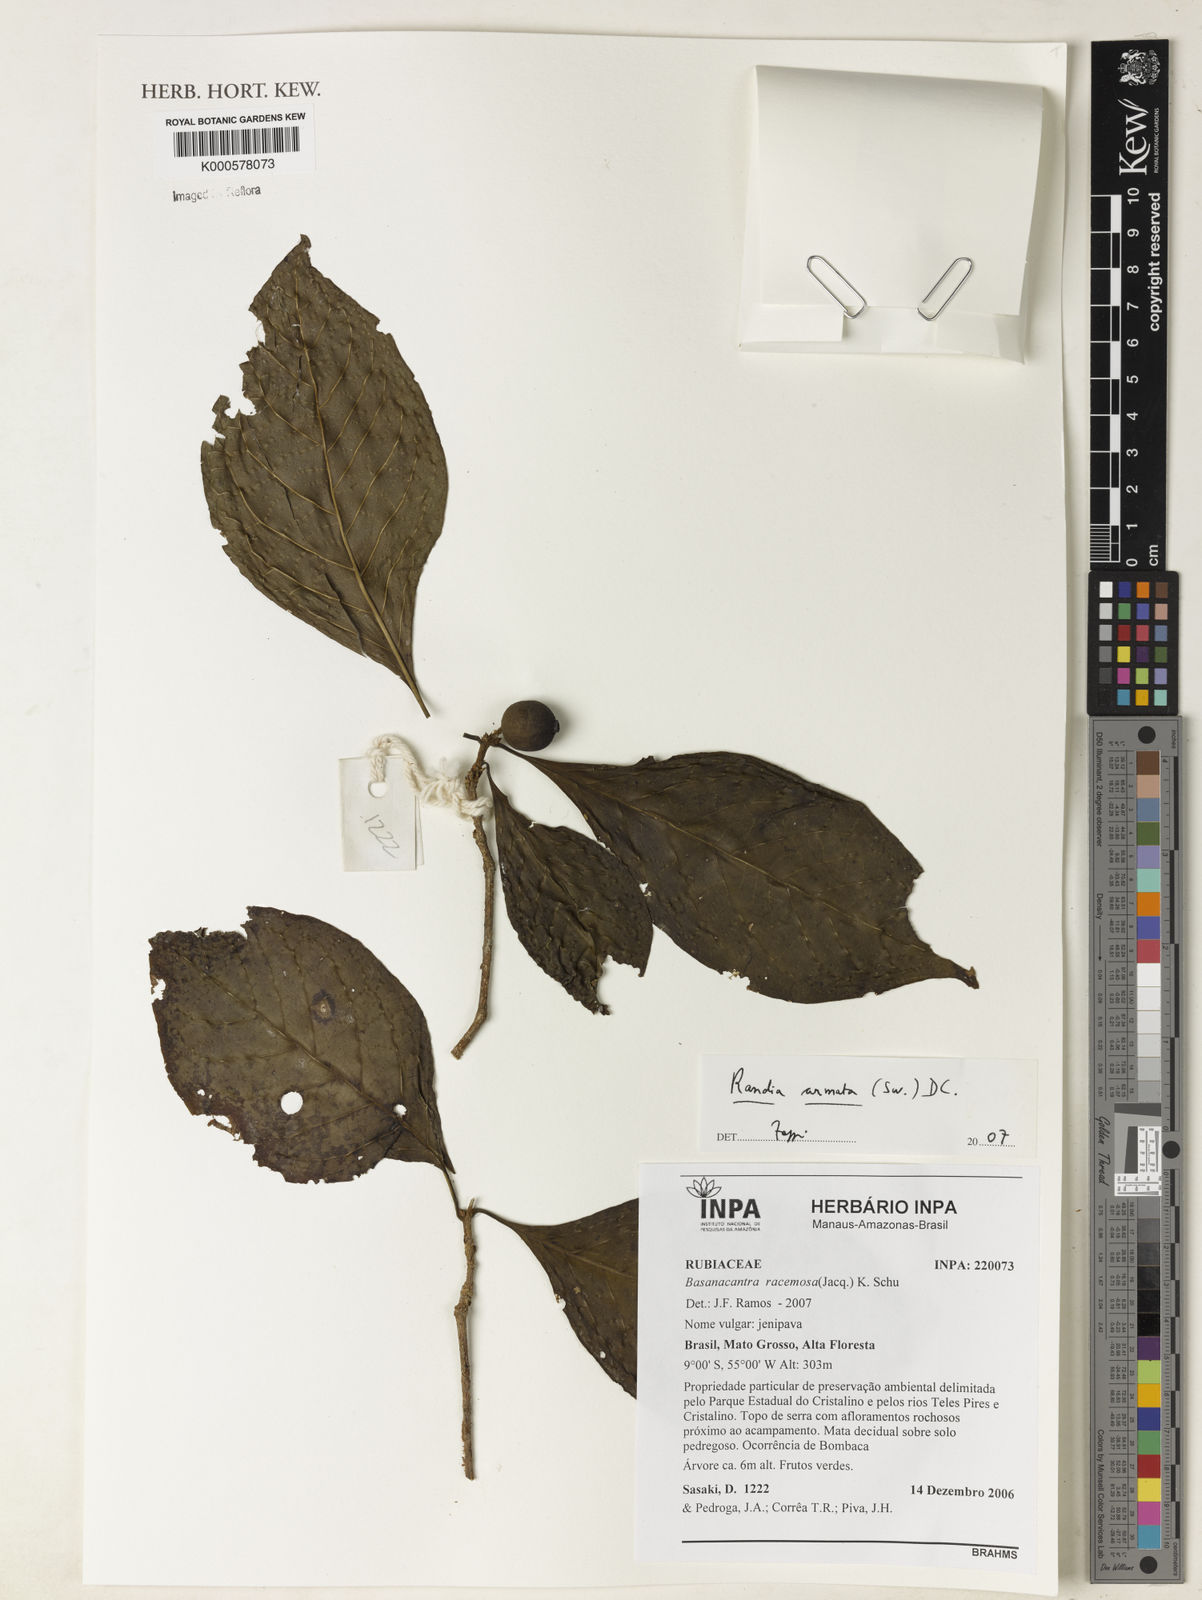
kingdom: Plantae
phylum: Tracheophyta
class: Magnoliopsida
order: Gentianales
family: Rubiaceae
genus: Randia
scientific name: Randia armata
